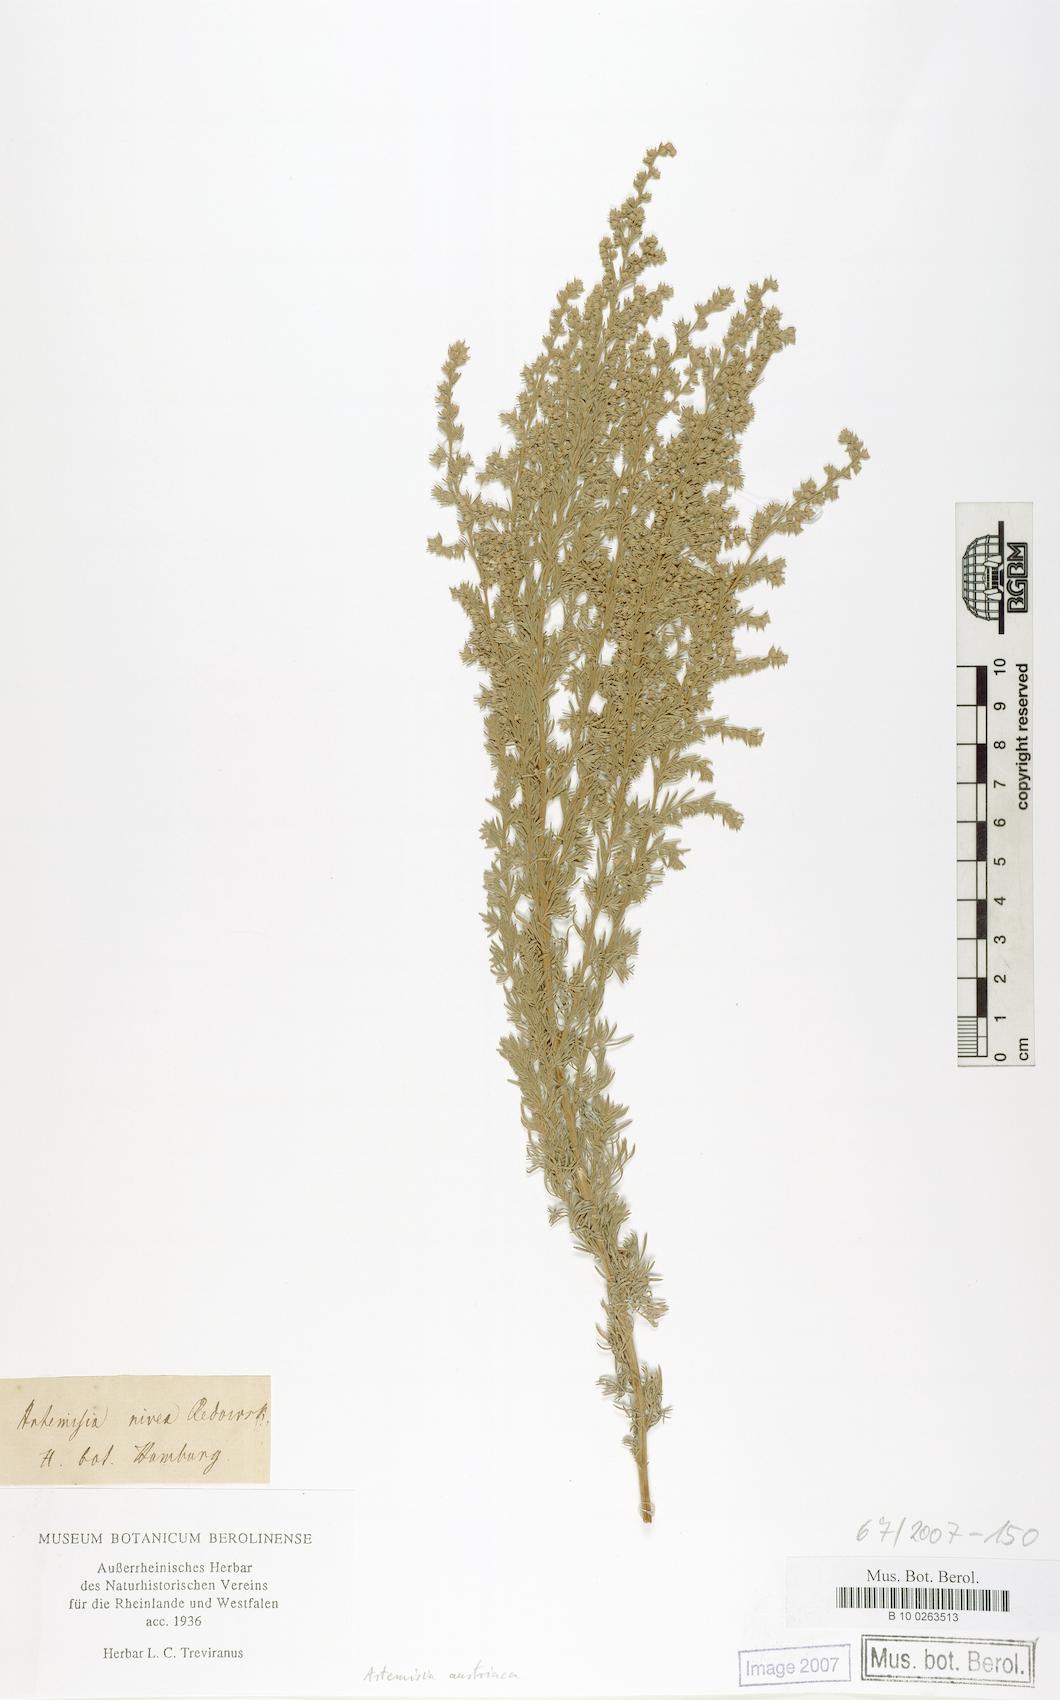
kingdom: Plantae
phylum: Tracheophyta
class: Magnoliopsida
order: Asterales
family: Asteraceae
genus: Artemisia
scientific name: Artemisia austriaca
